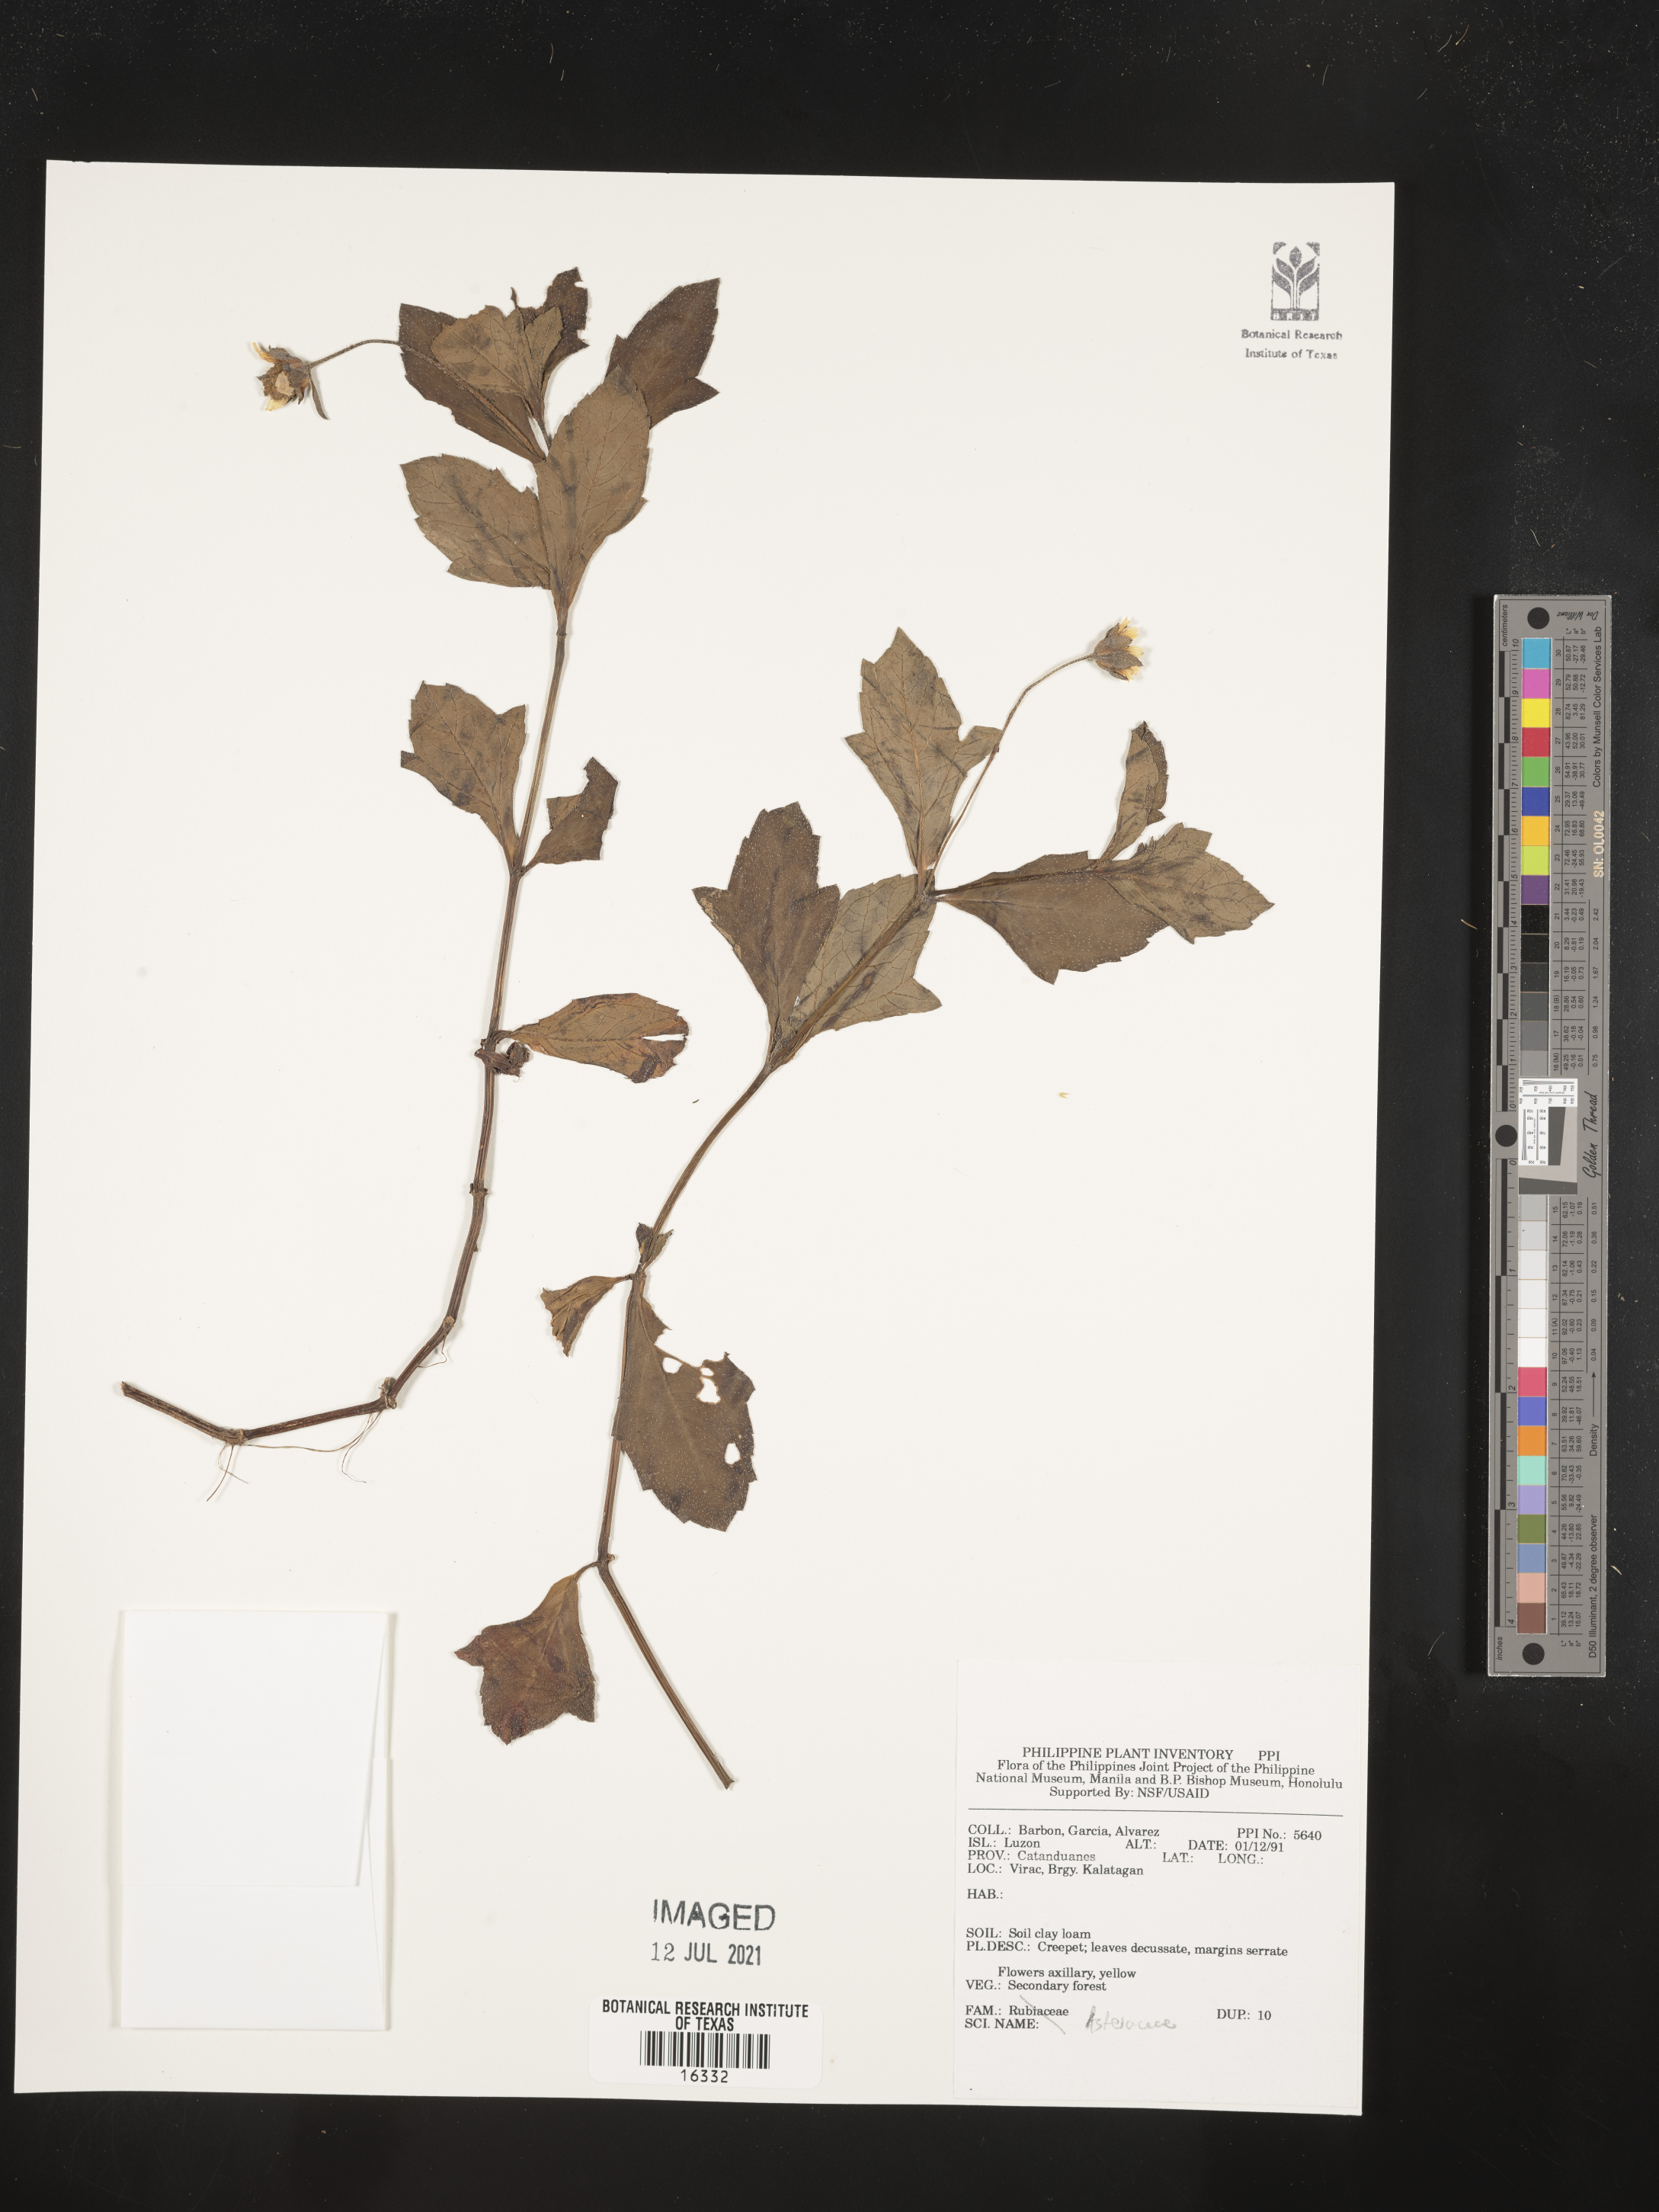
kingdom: Plantae
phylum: Tracheophyta
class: Magnoliopsida
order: Asterales
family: Asteraceae
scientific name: Asteraceae
